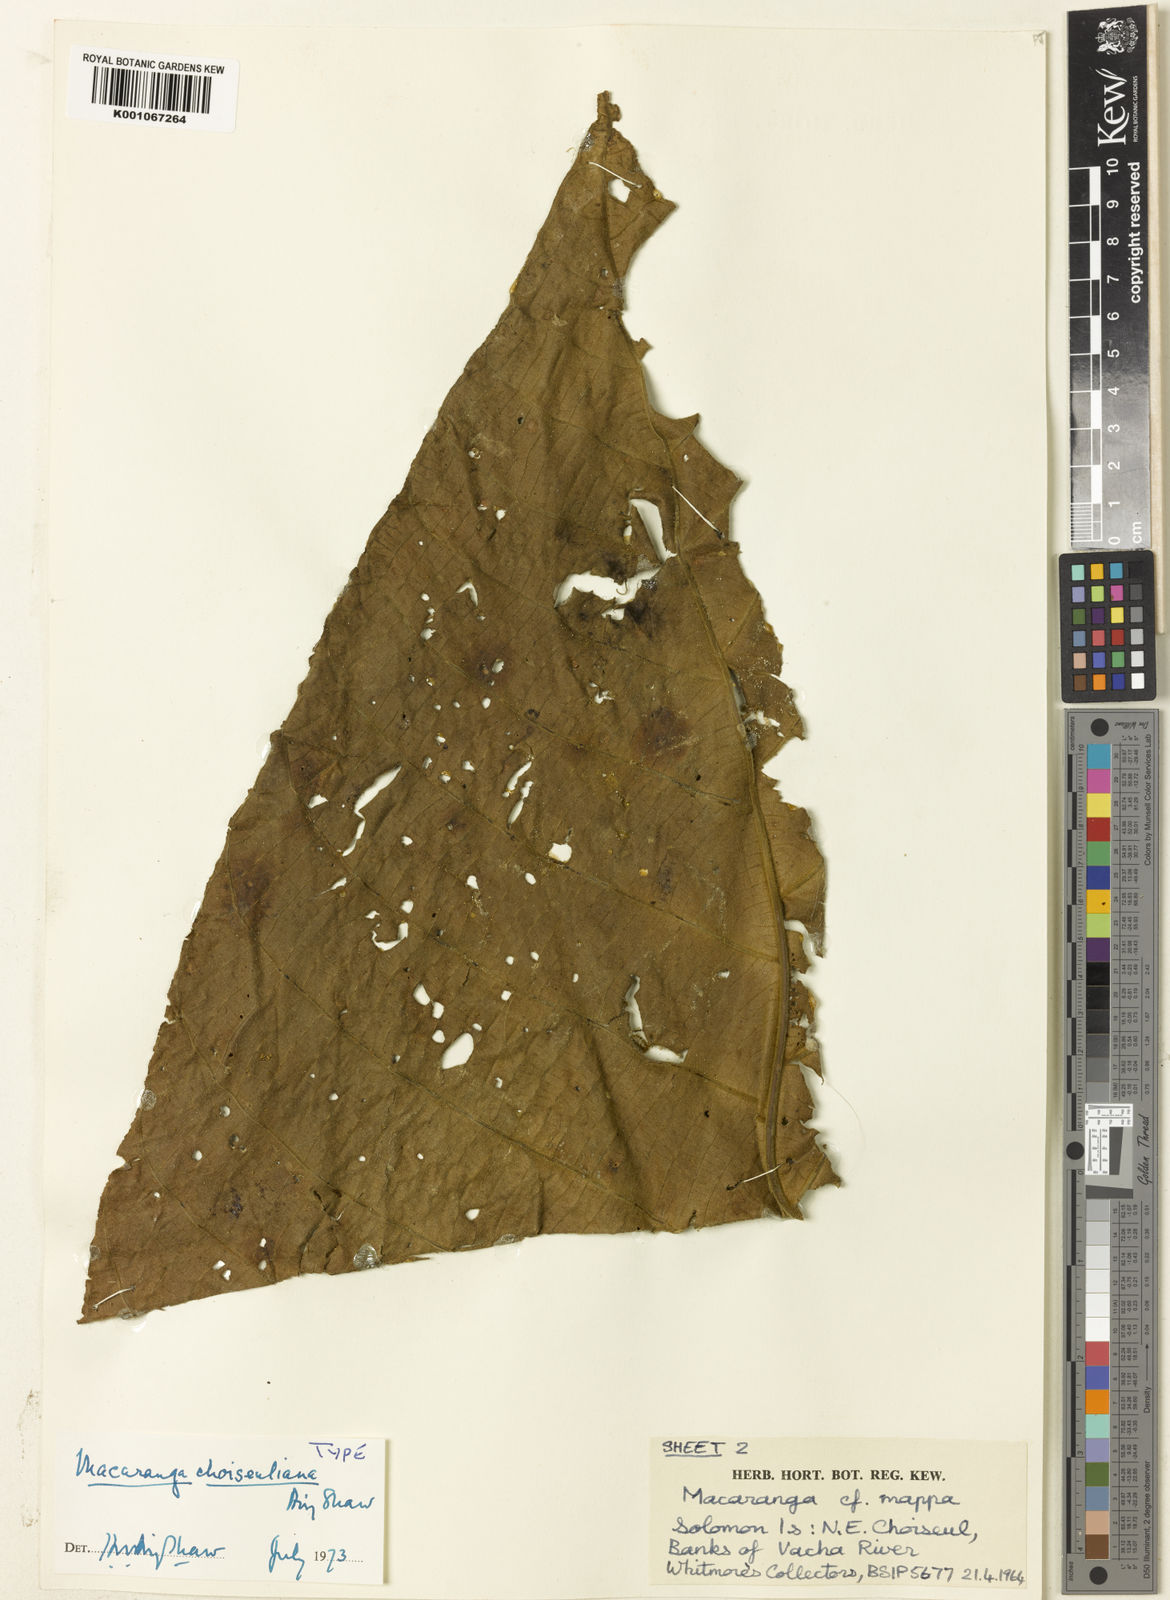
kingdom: Plantae
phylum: Tracheophyta
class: Magnoliopsida
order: Malpighiales
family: Euphorbiaceae
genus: Macaranga
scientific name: Macaranga choiseuliana
